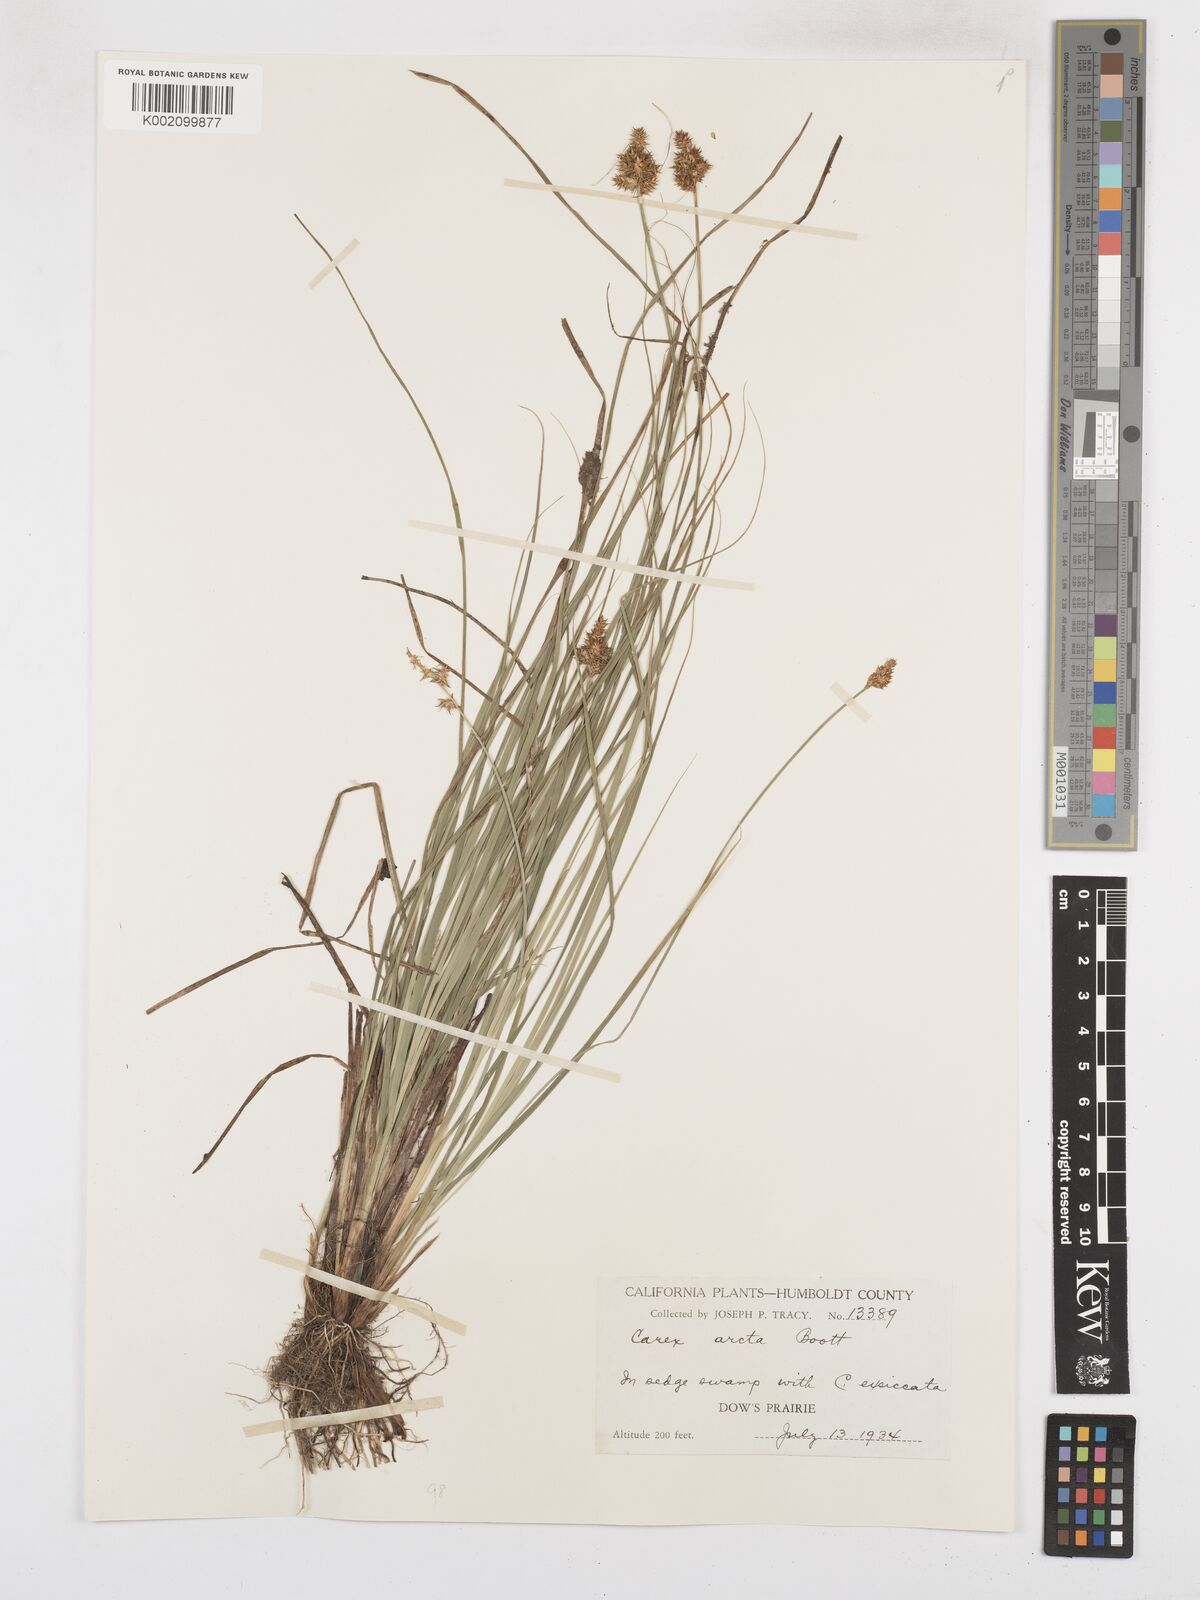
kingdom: Plantae
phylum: Tracheophyta
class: Liliopsida
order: Poales
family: Cyperaceae
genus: Carex
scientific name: Carex arcta
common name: Bear sedge
